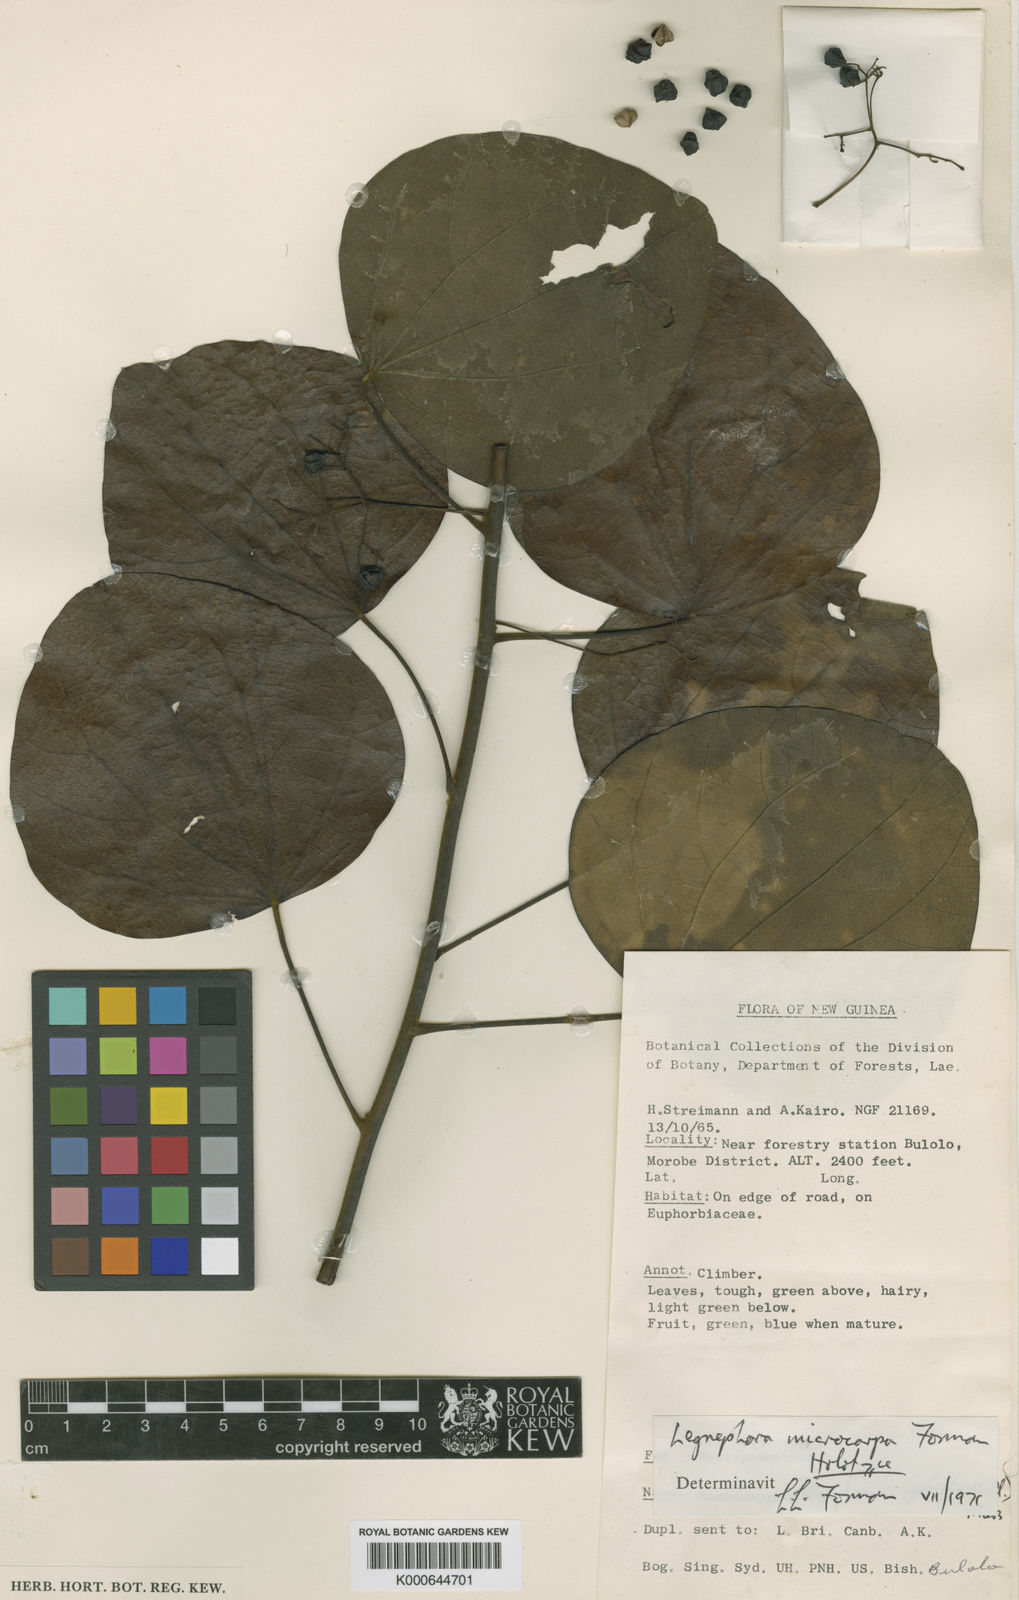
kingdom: Plantae
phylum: Tracheophyta
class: Magnoliopsida
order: Ranunculales
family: Menispermaceae
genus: Legnephora
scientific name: Legnephora microcarpa
